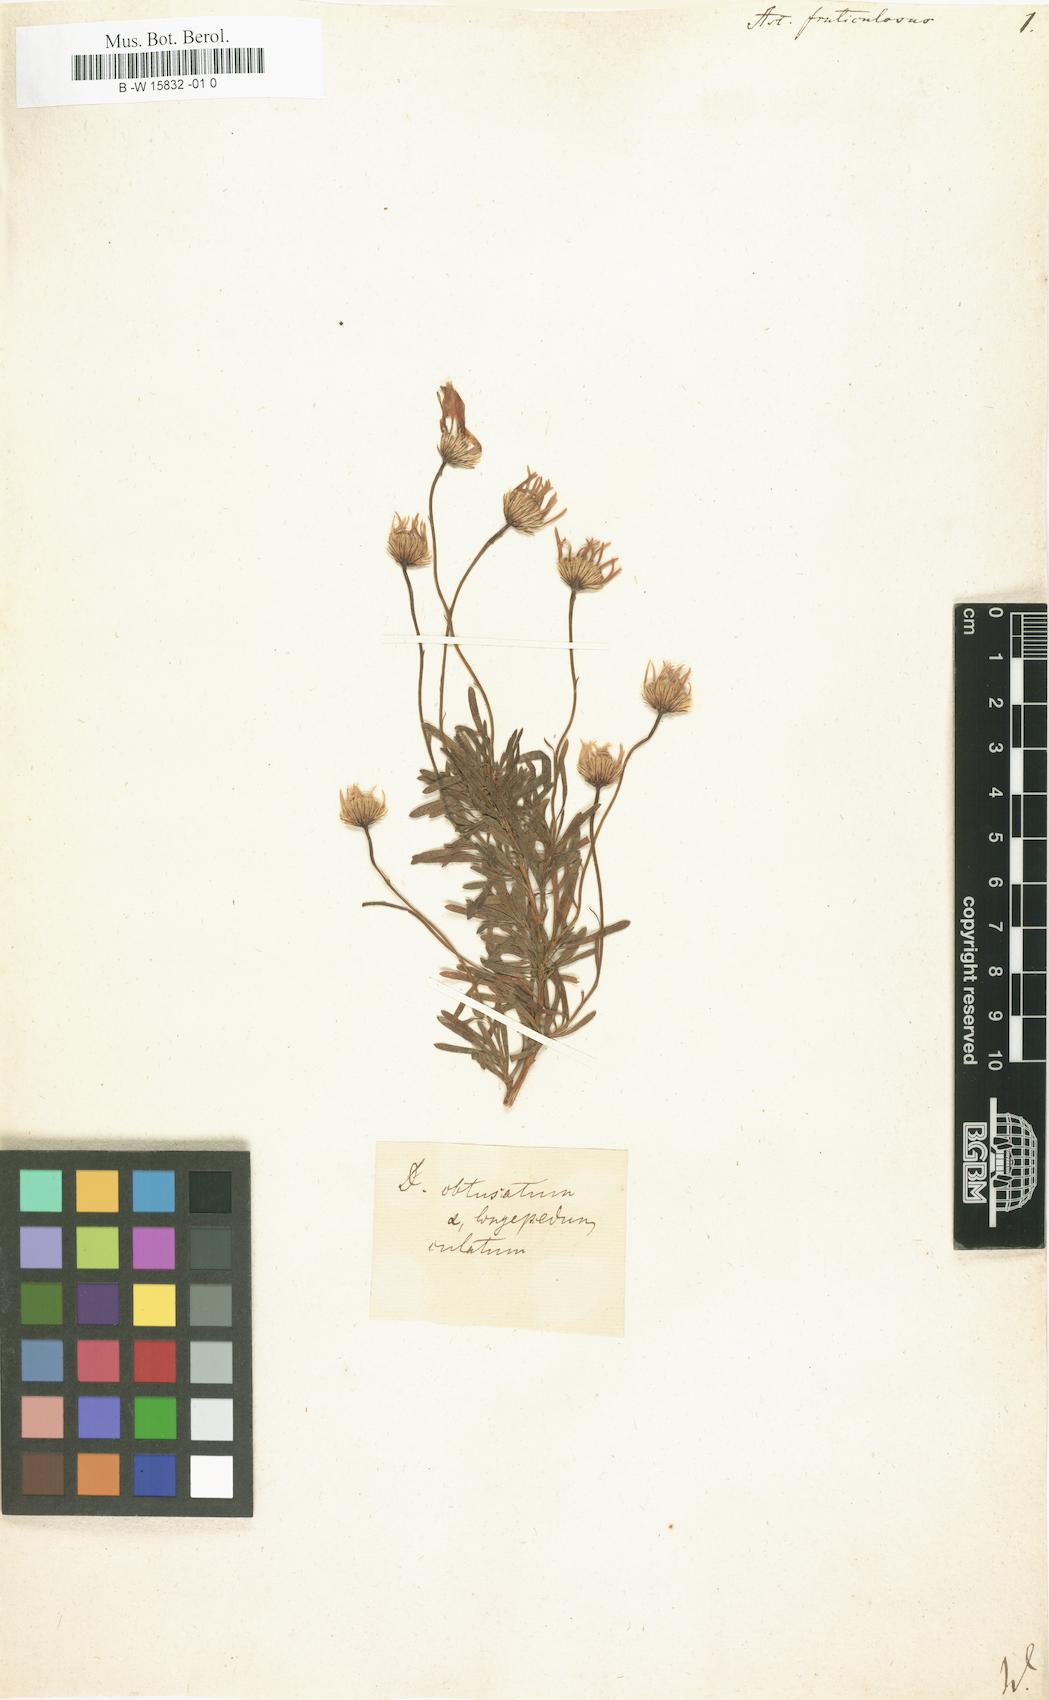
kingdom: Plantae
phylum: Tracheophyta
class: Magnoliopsida
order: Asterales
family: Asteraceae
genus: Aster
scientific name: Aster fruticulosus
